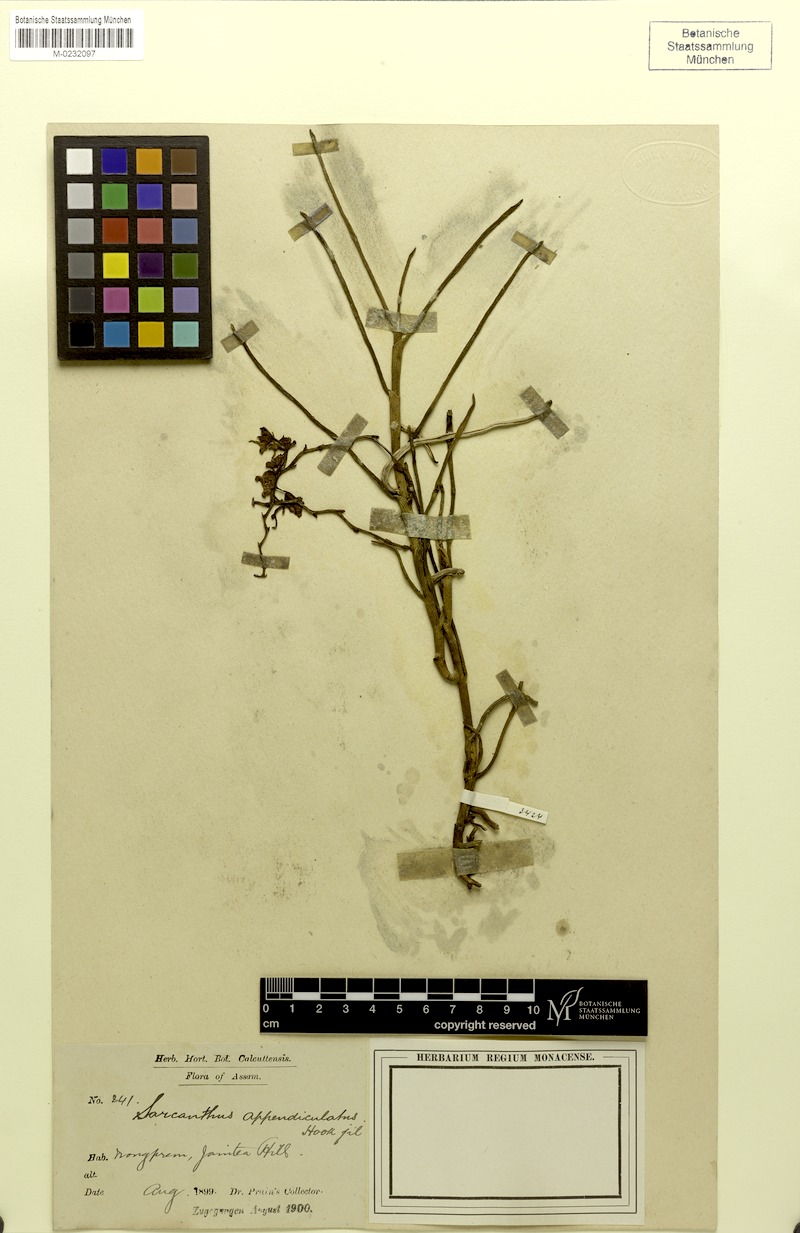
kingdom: Plantae
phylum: Tracheophyta
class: Liliopsida
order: Asparagales
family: Orchidaceae
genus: Cleisostoma
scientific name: Cleisostoma appendiculatum
